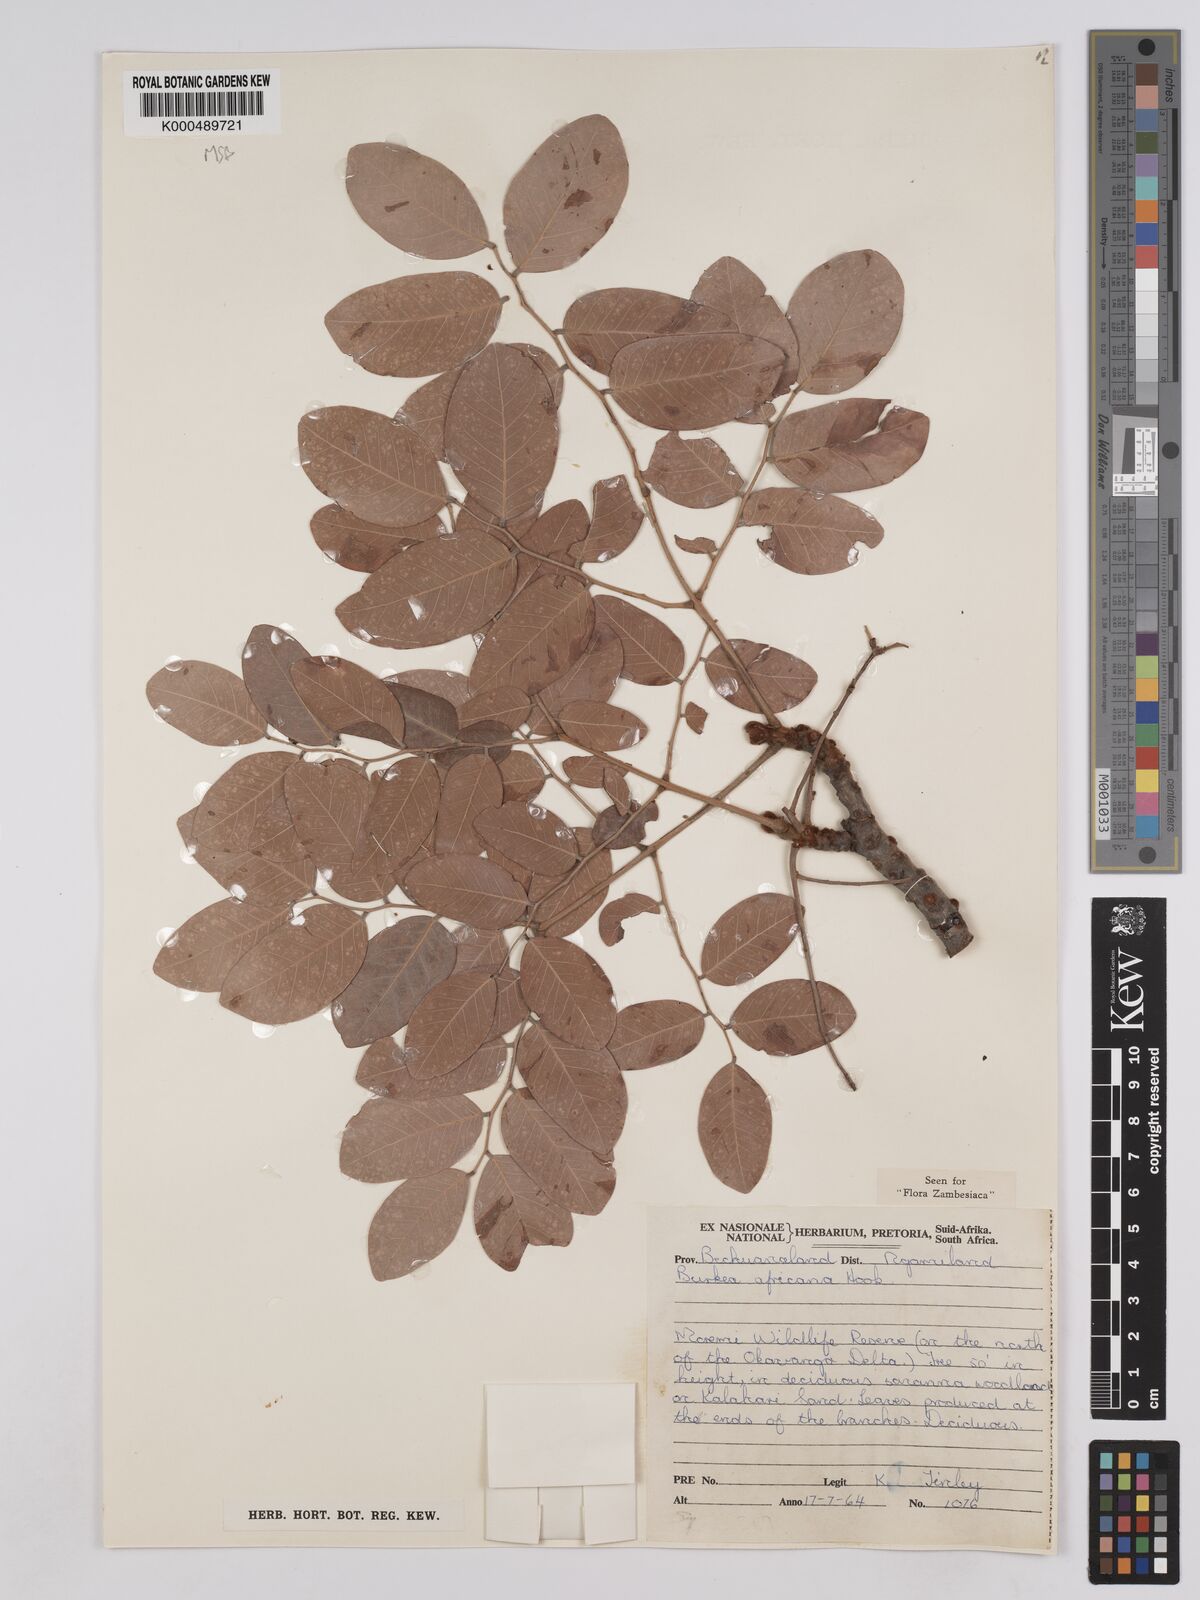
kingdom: Plantae
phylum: Tracheophyta
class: Magnoliopsida
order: Fabales
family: Fabaceae
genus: Burkea
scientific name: Burkea africana
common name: Mkalati tree
